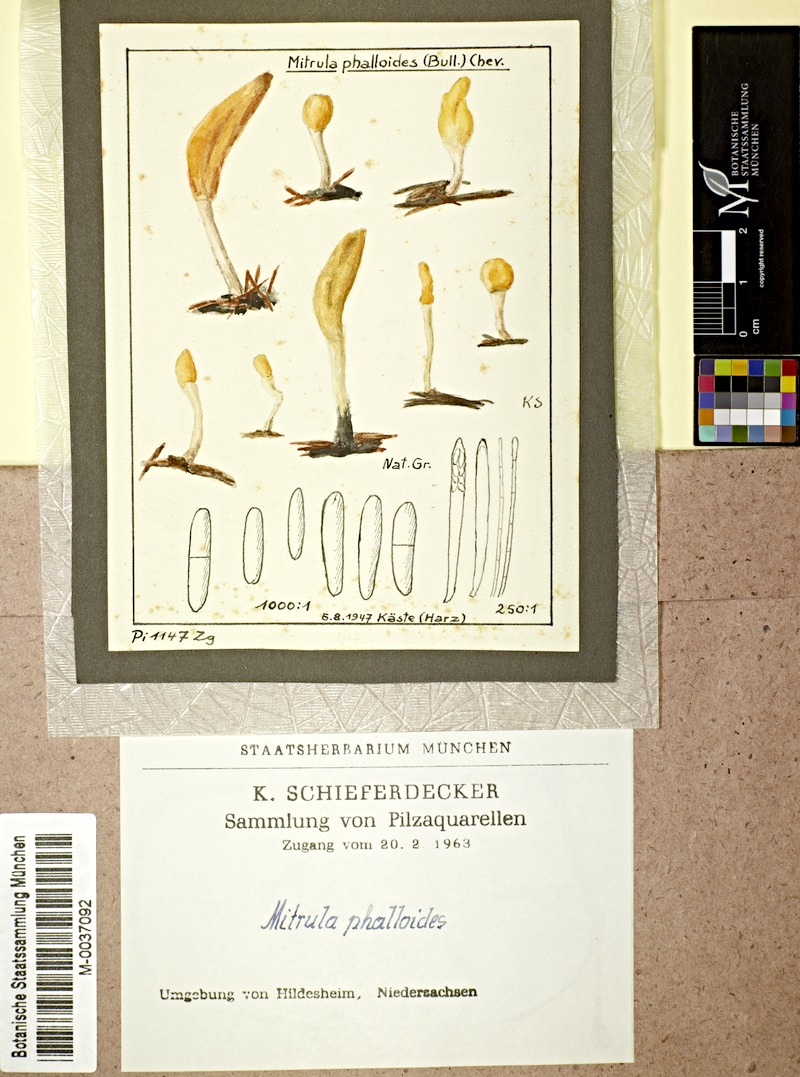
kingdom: Fungi
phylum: Ascomycota
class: Leotiomycetes
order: Helotiales
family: Cenangiaceae
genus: Mitrula
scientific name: Mitrula paludosa
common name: Bog beacon
